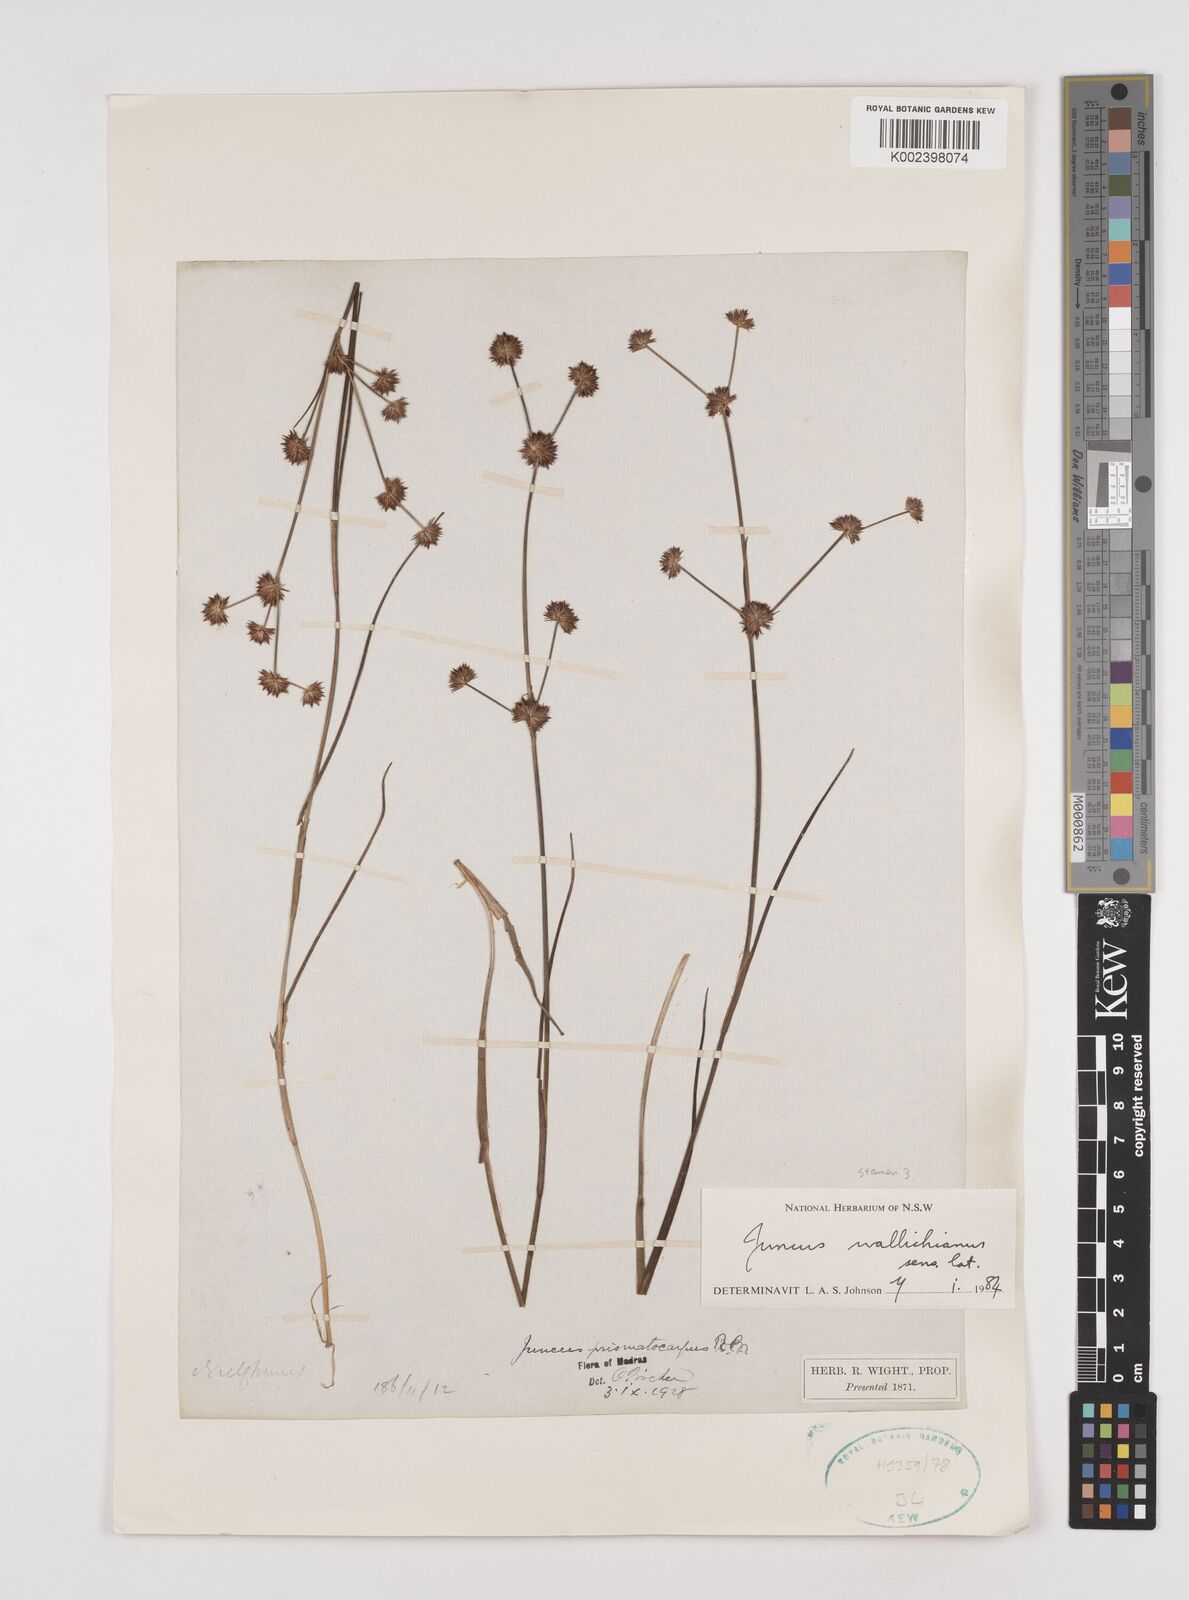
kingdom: Plantae
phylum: Tracheophyta
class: Liliopsida
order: Poales
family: Juncaceae
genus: Juncus
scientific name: Juncus wallichianus
